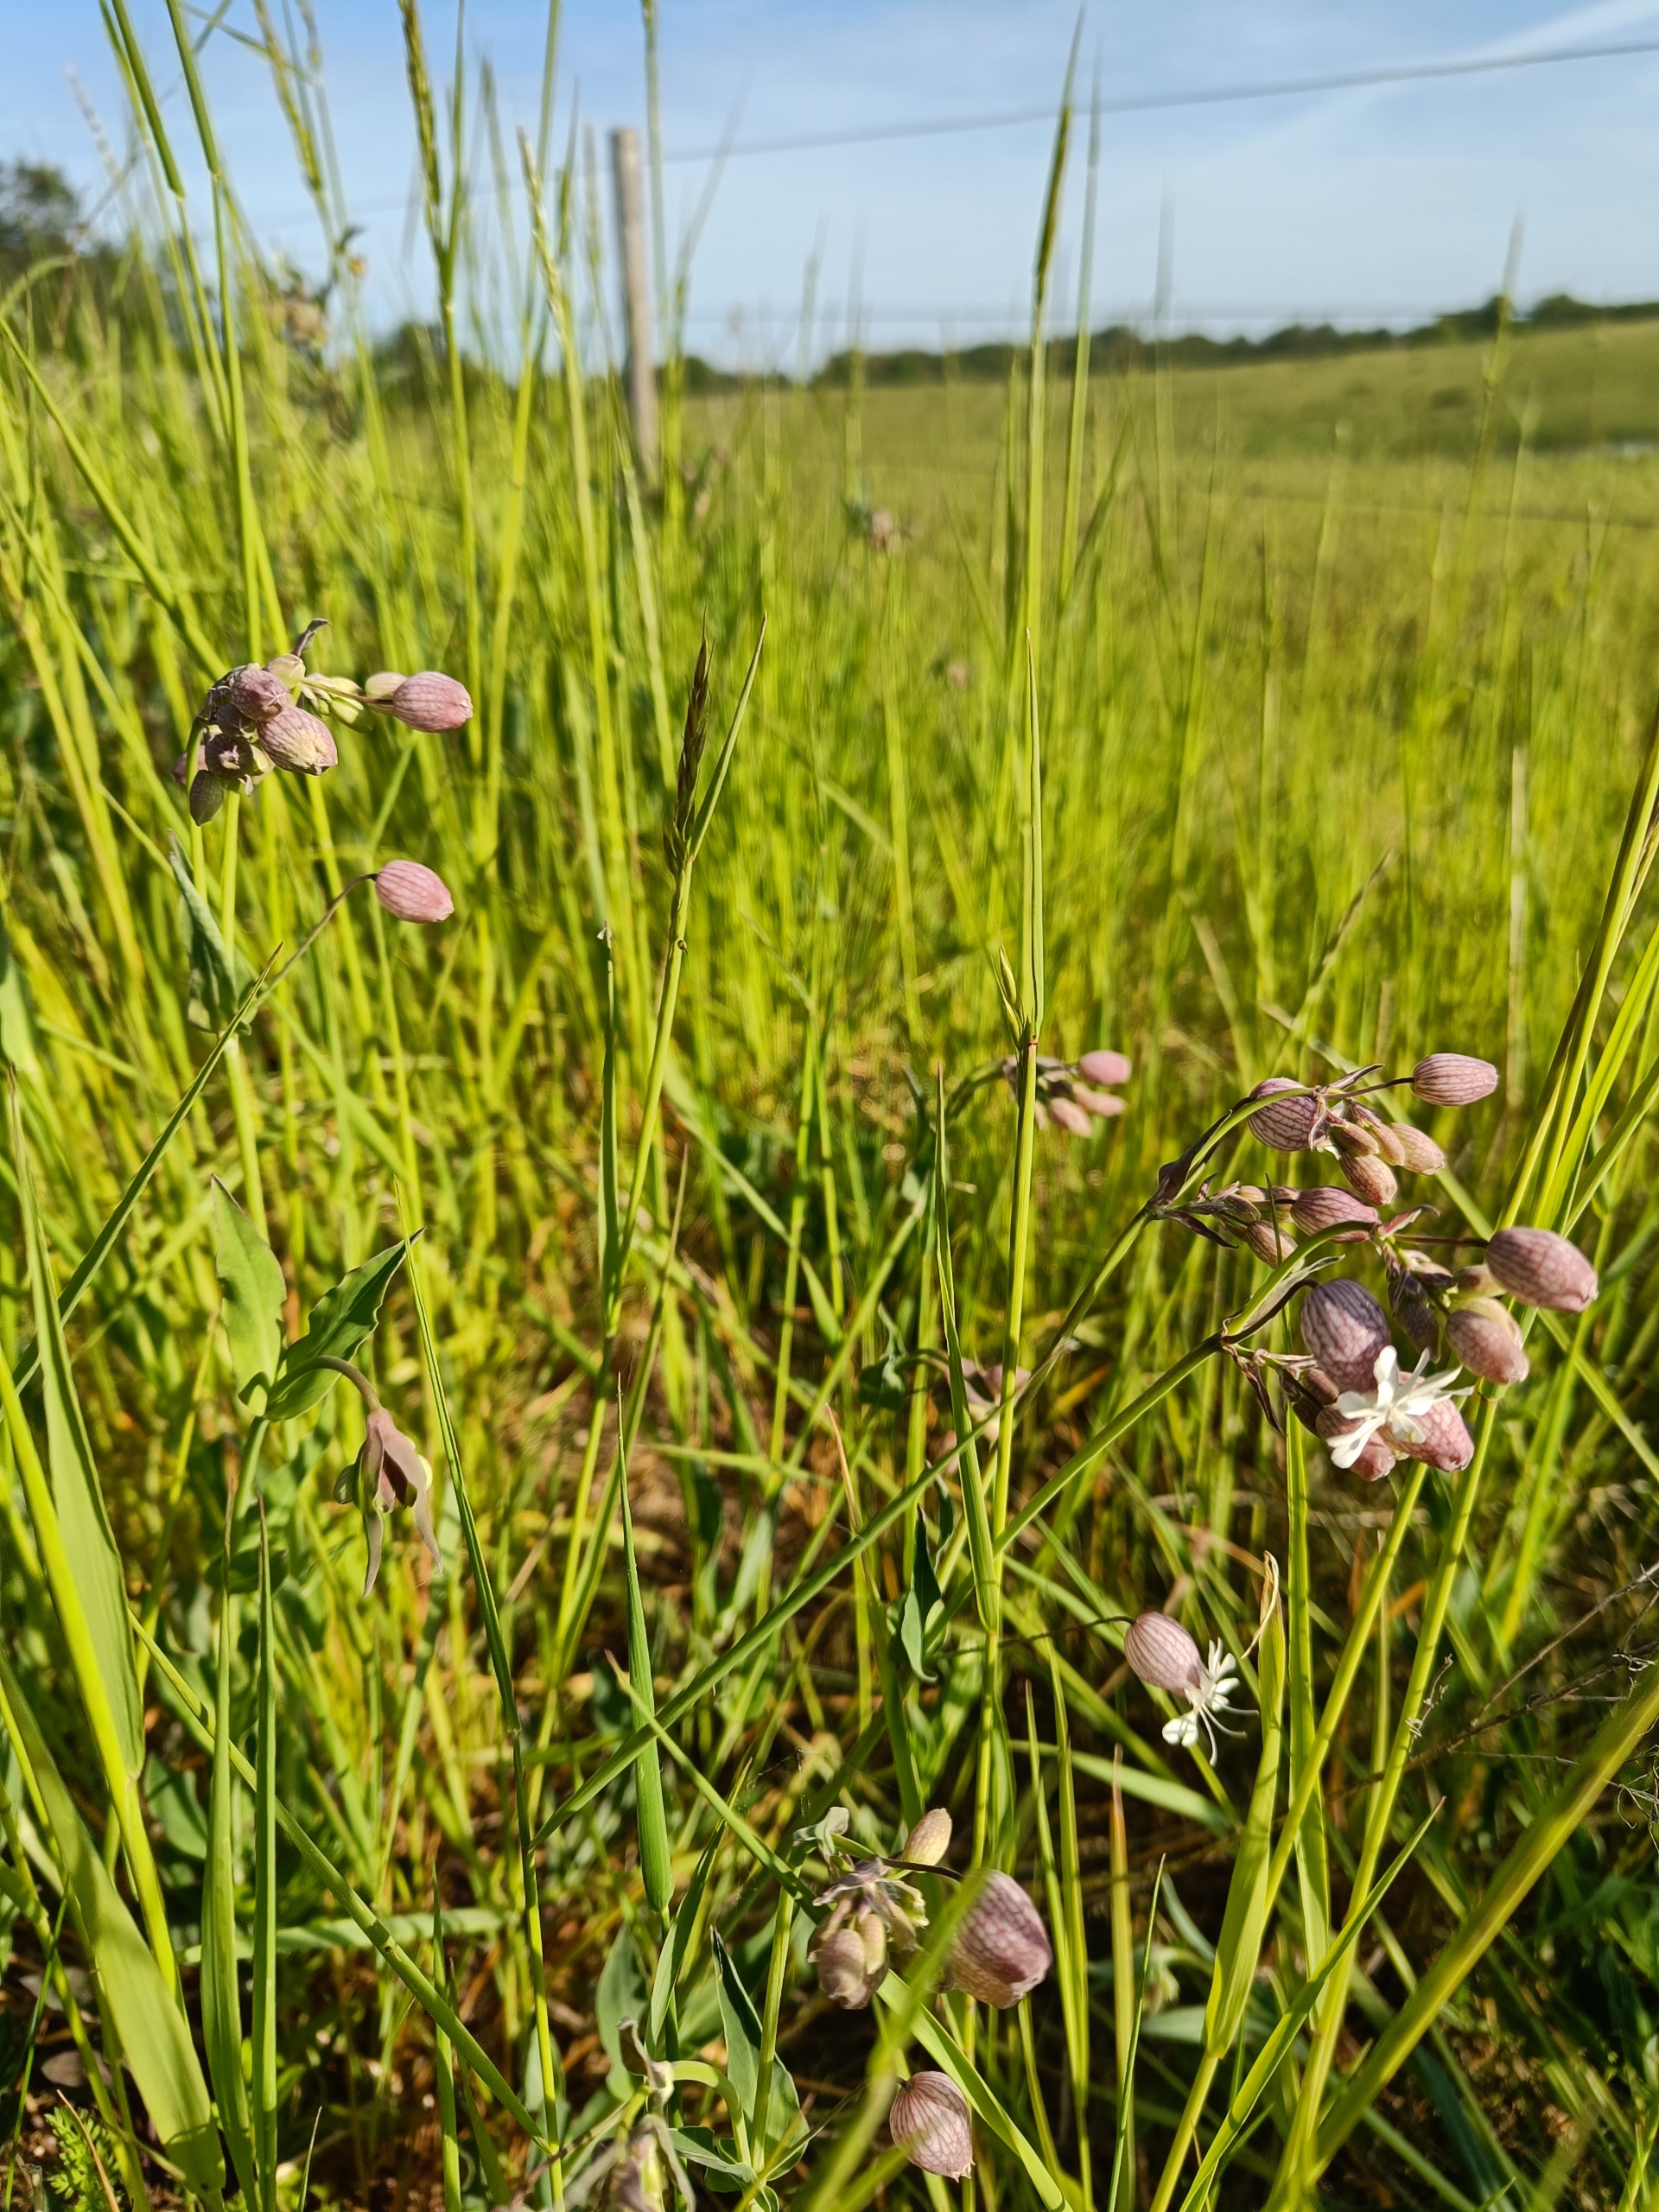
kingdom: Plantae
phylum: Tracheophyta
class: Magnoliopsida
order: Caryophyllales
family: Caryophyllaceae
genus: Silene
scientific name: Silene vulgaris
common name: Blæresmælde
